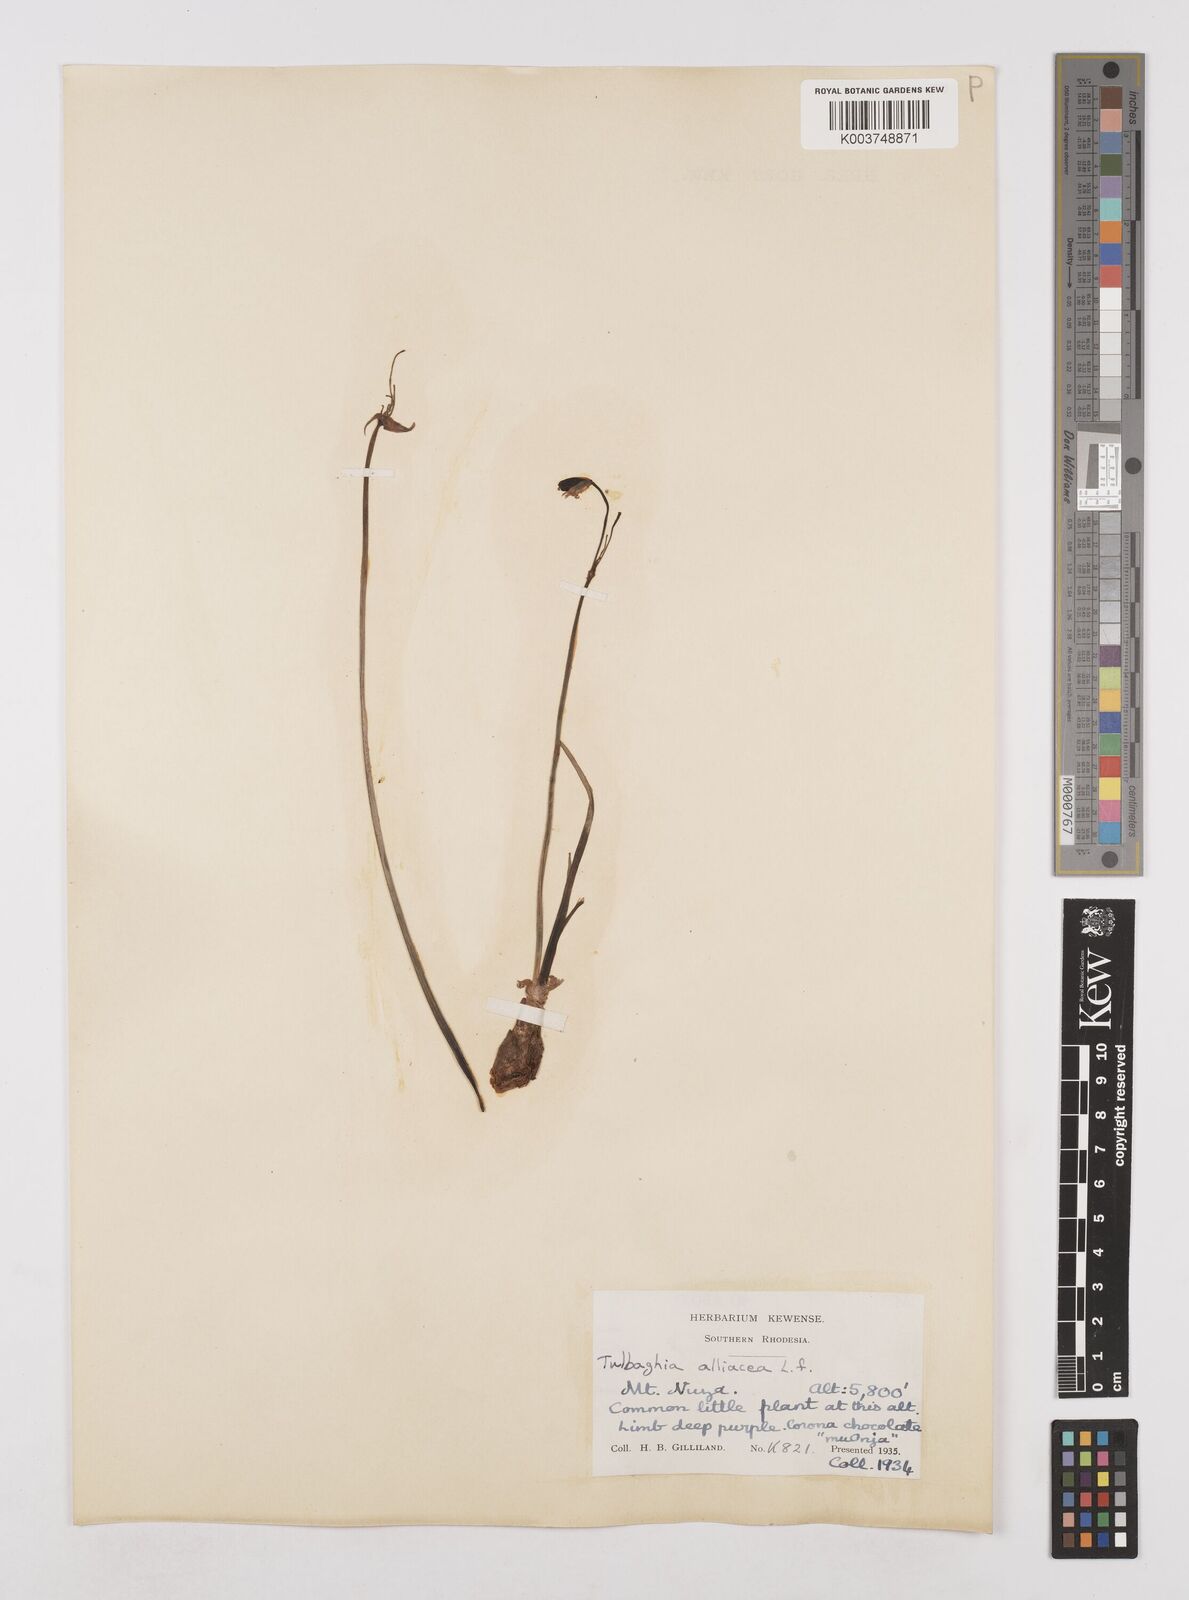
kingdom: Plantae
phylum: Tracheophyta
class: Liliopsida
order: Asparagales
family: Amaryllidaceae
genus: Tulbaghia
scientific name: Tulbaghia alliacea
